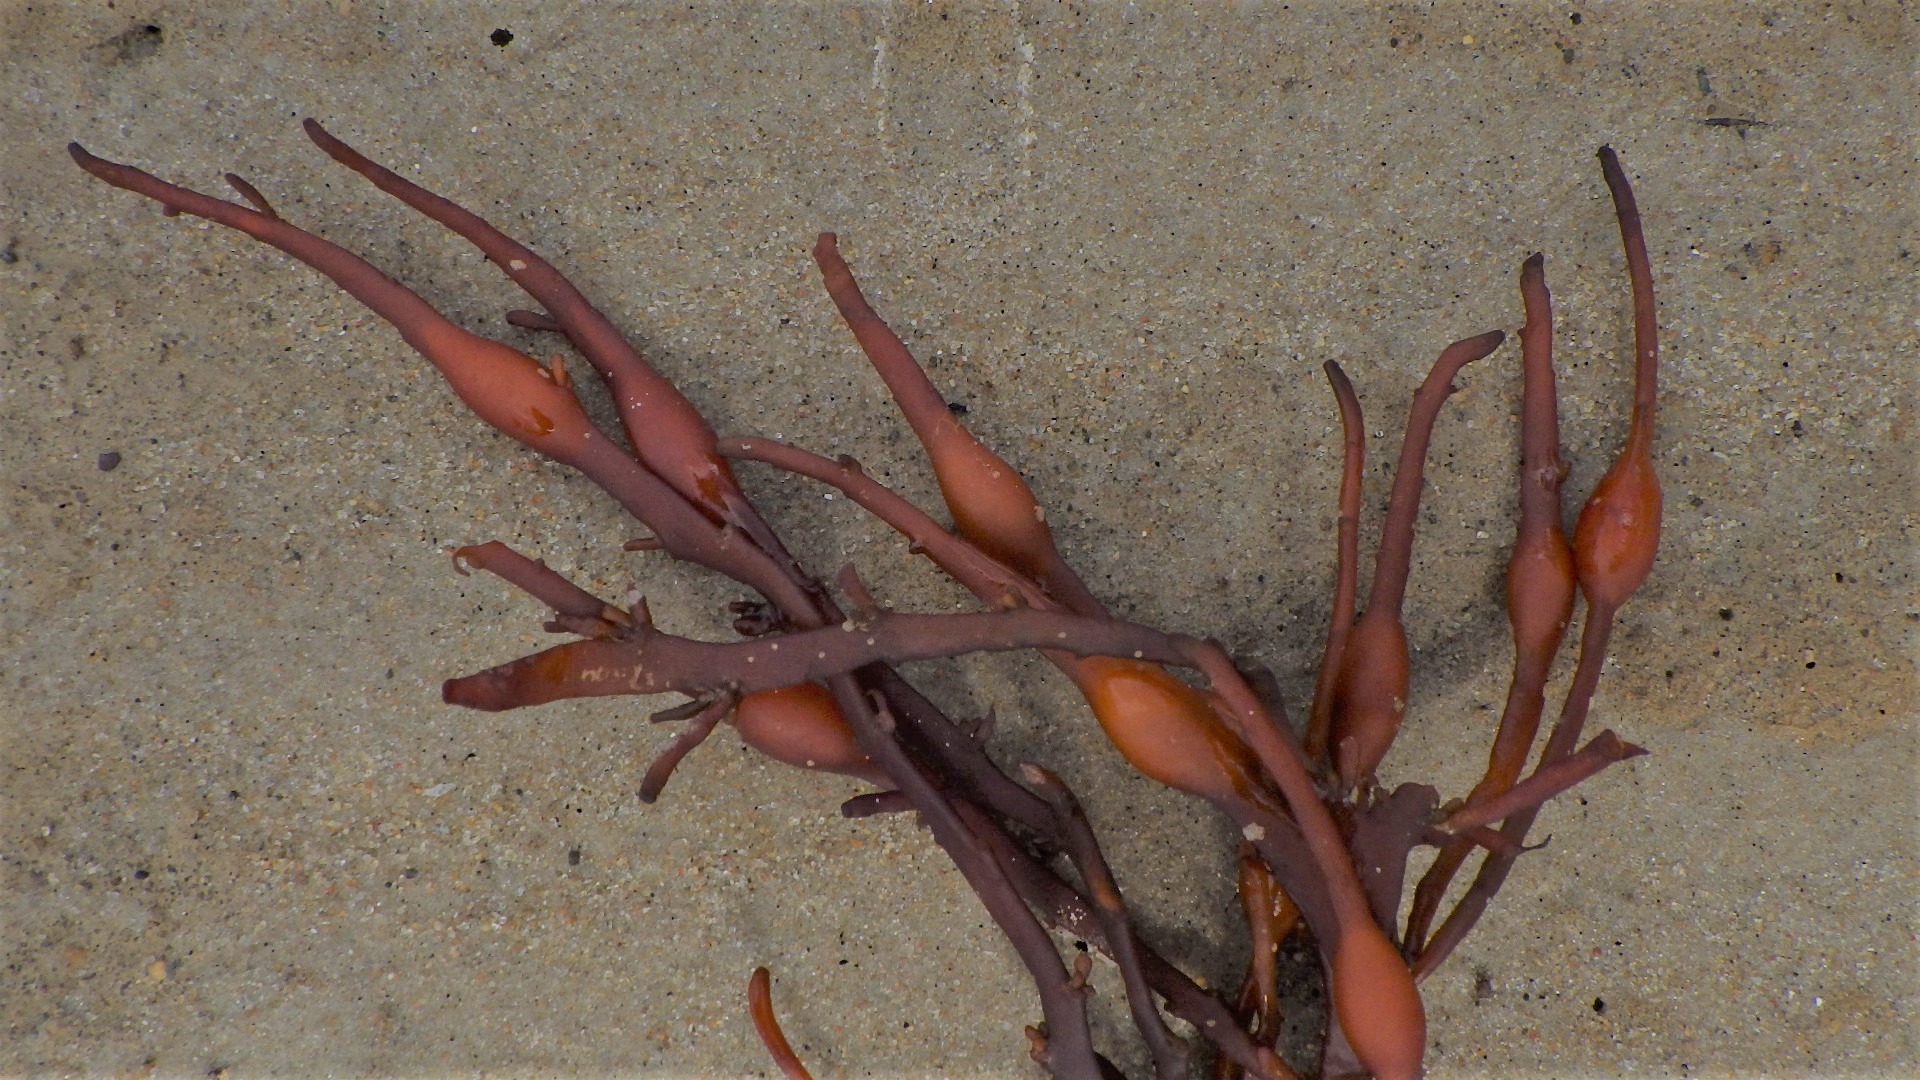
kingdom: Chromista
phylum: Ochrophyta
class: Phaeophyceae
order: Fucales
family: Fucaceae
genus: Ascophyllum
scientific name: Ascophyllum nodosum
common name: Buletang
